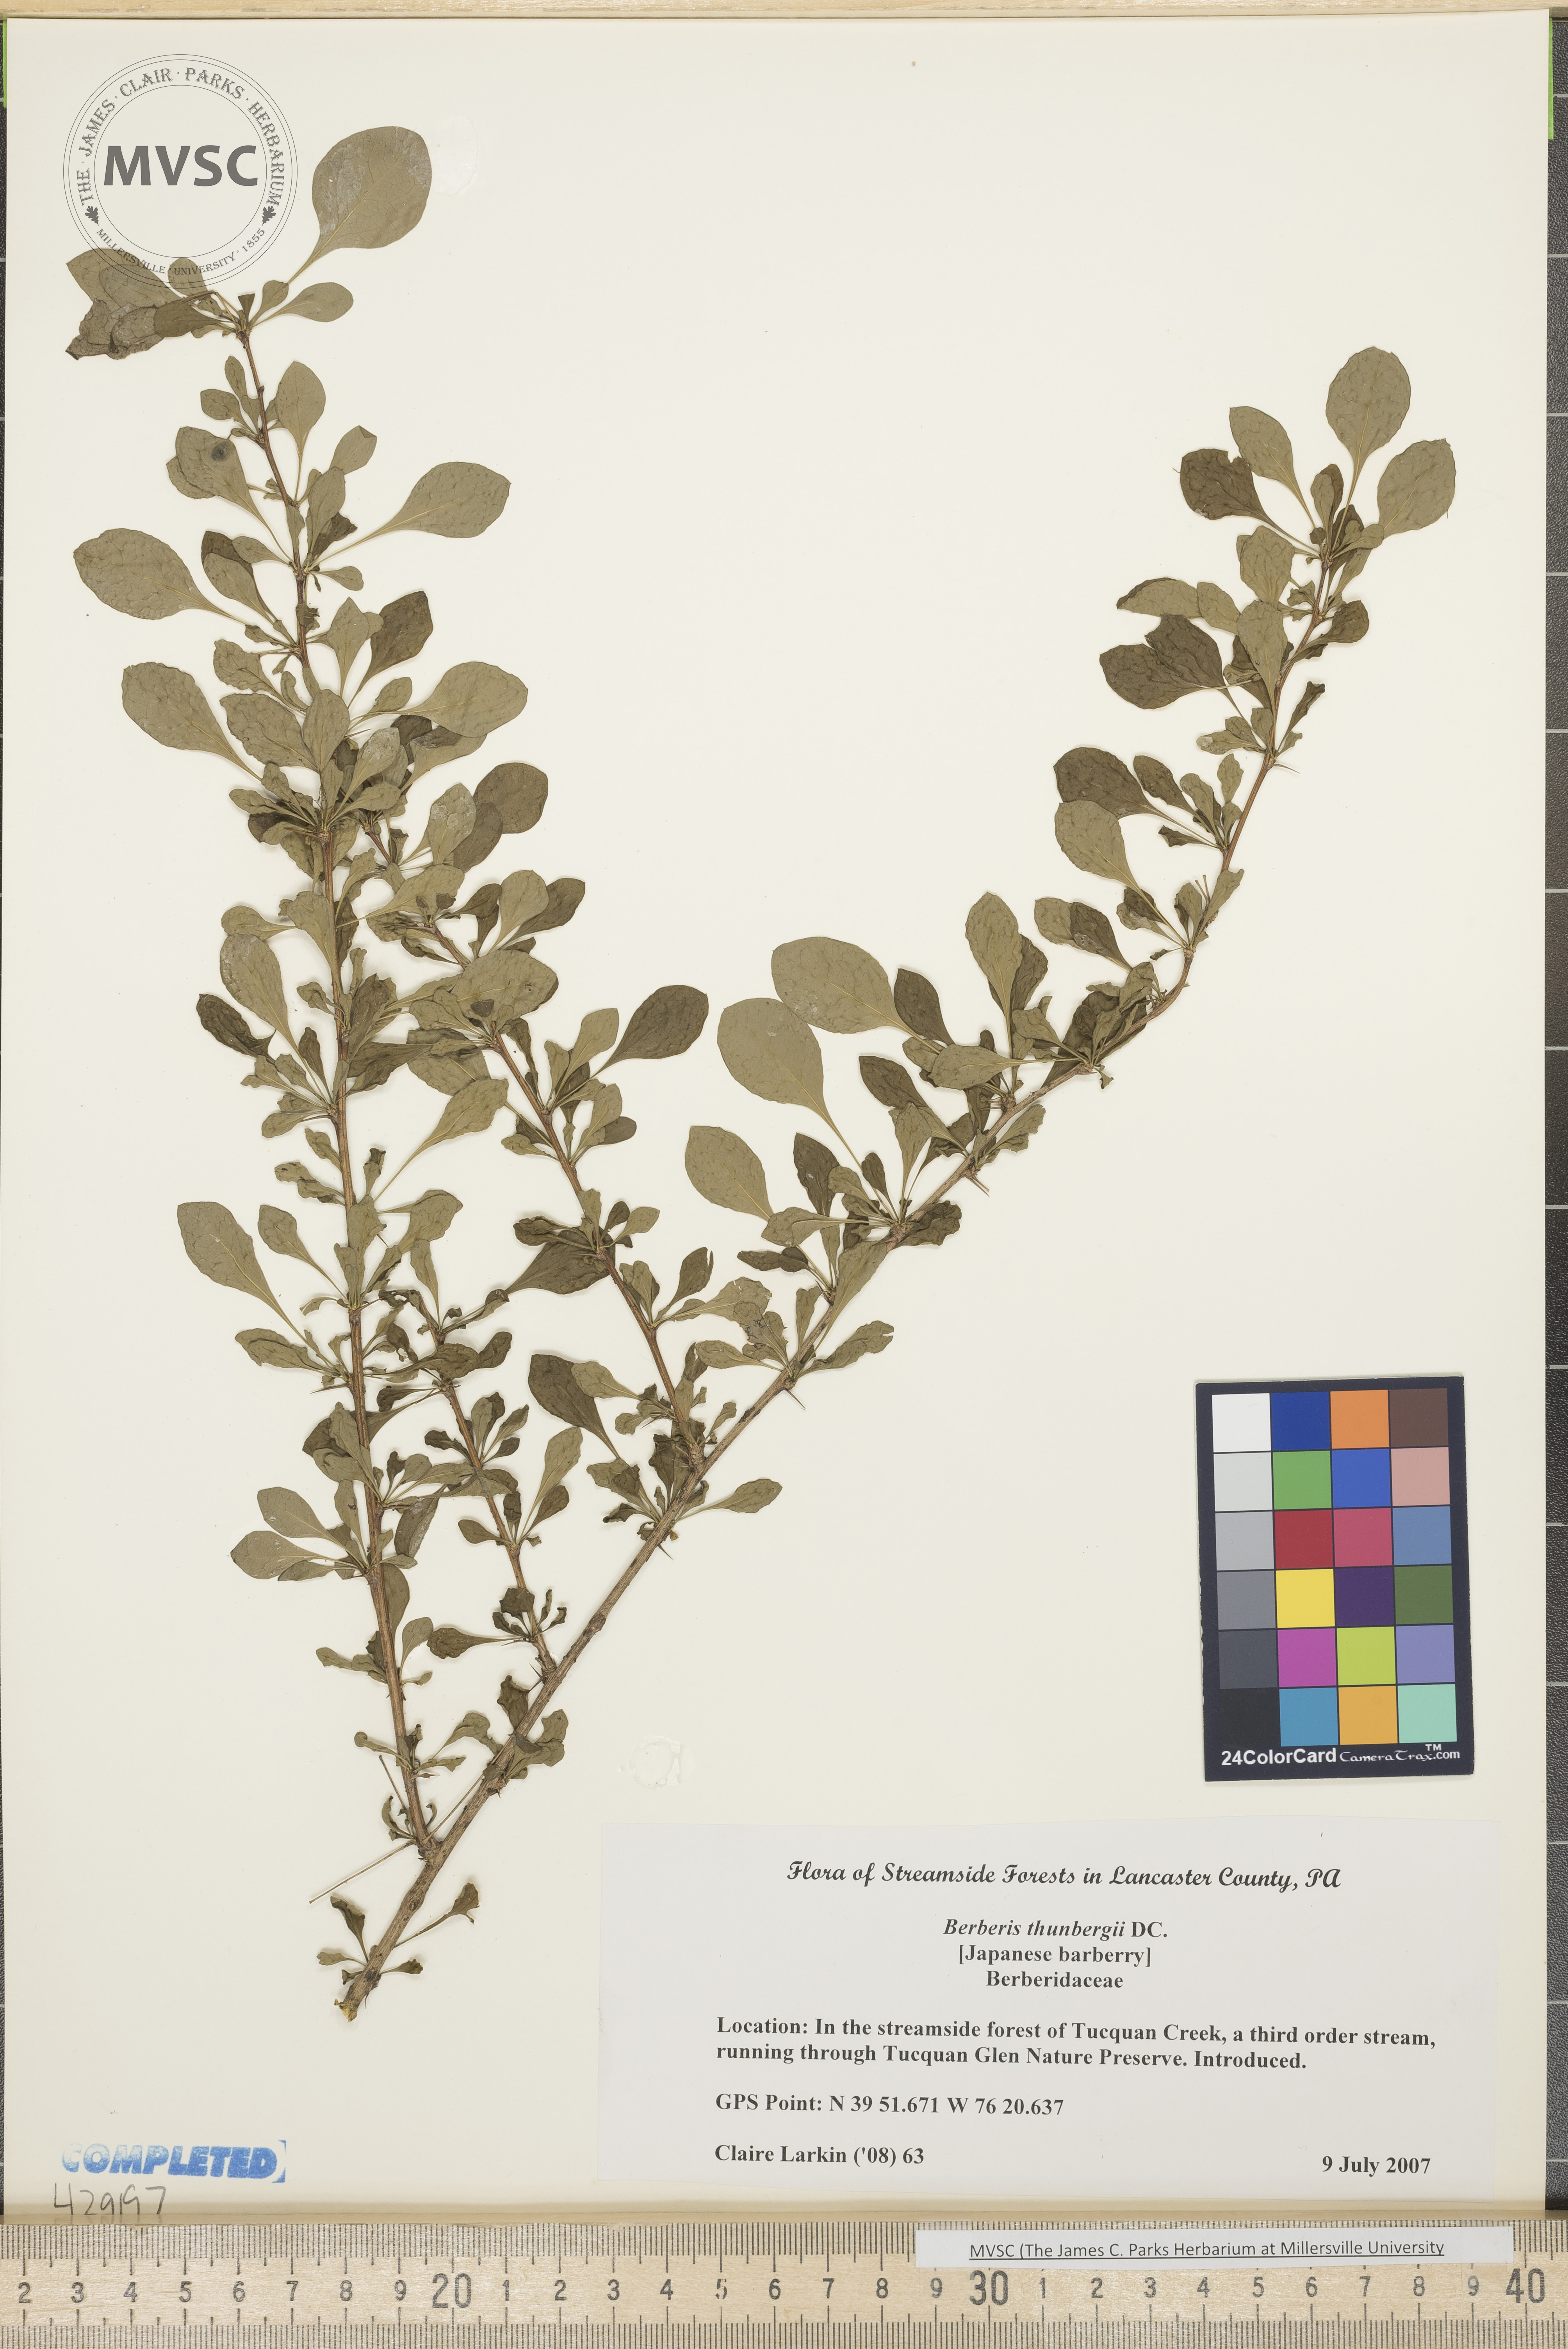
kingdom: Plantae
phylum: Tracheophyta
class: Magnoliopsida
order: Ranunculales
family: Berberidaceae
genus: Berberis
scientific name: Berberis thunbergii
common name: Japanese barberry
